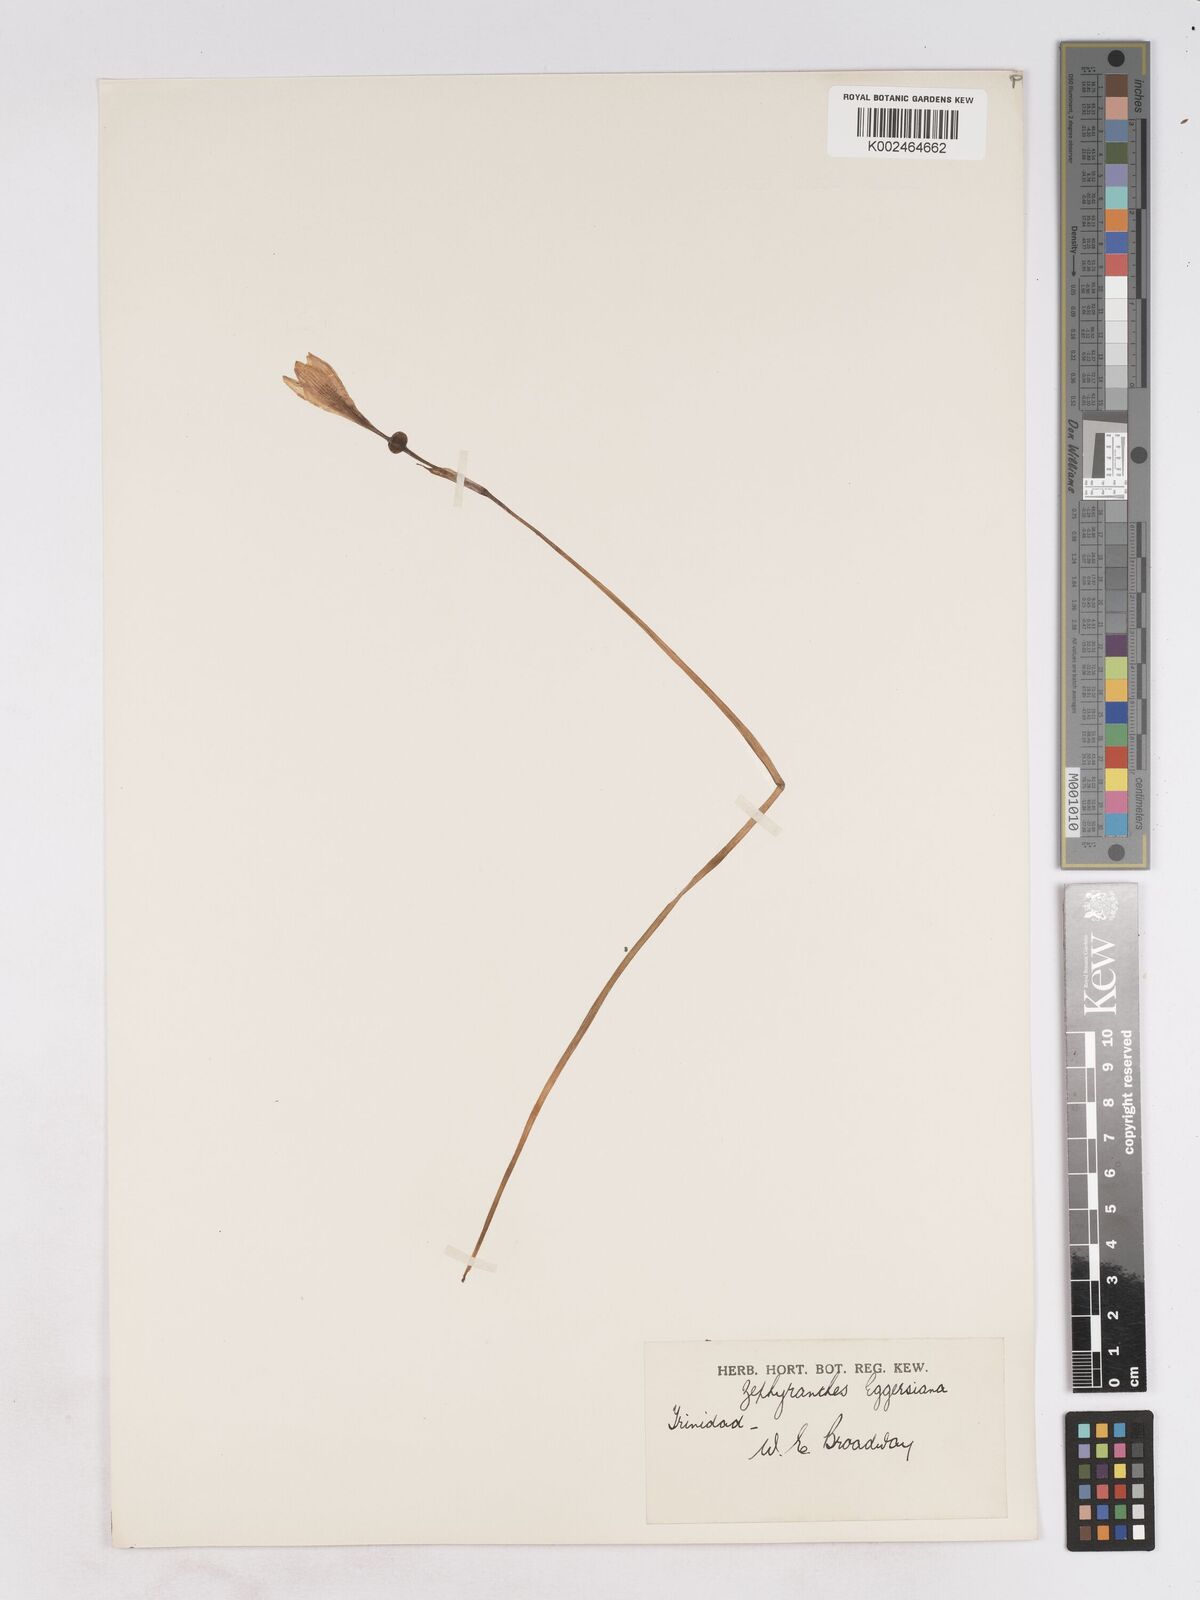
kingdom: Plantae
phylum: Tracheophyta
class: Liliopsida
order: Asparagales
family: Amaryllidaceae
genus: Zephyranthes
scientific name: Zephyranthes citrina
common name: Citron zephyrlily
